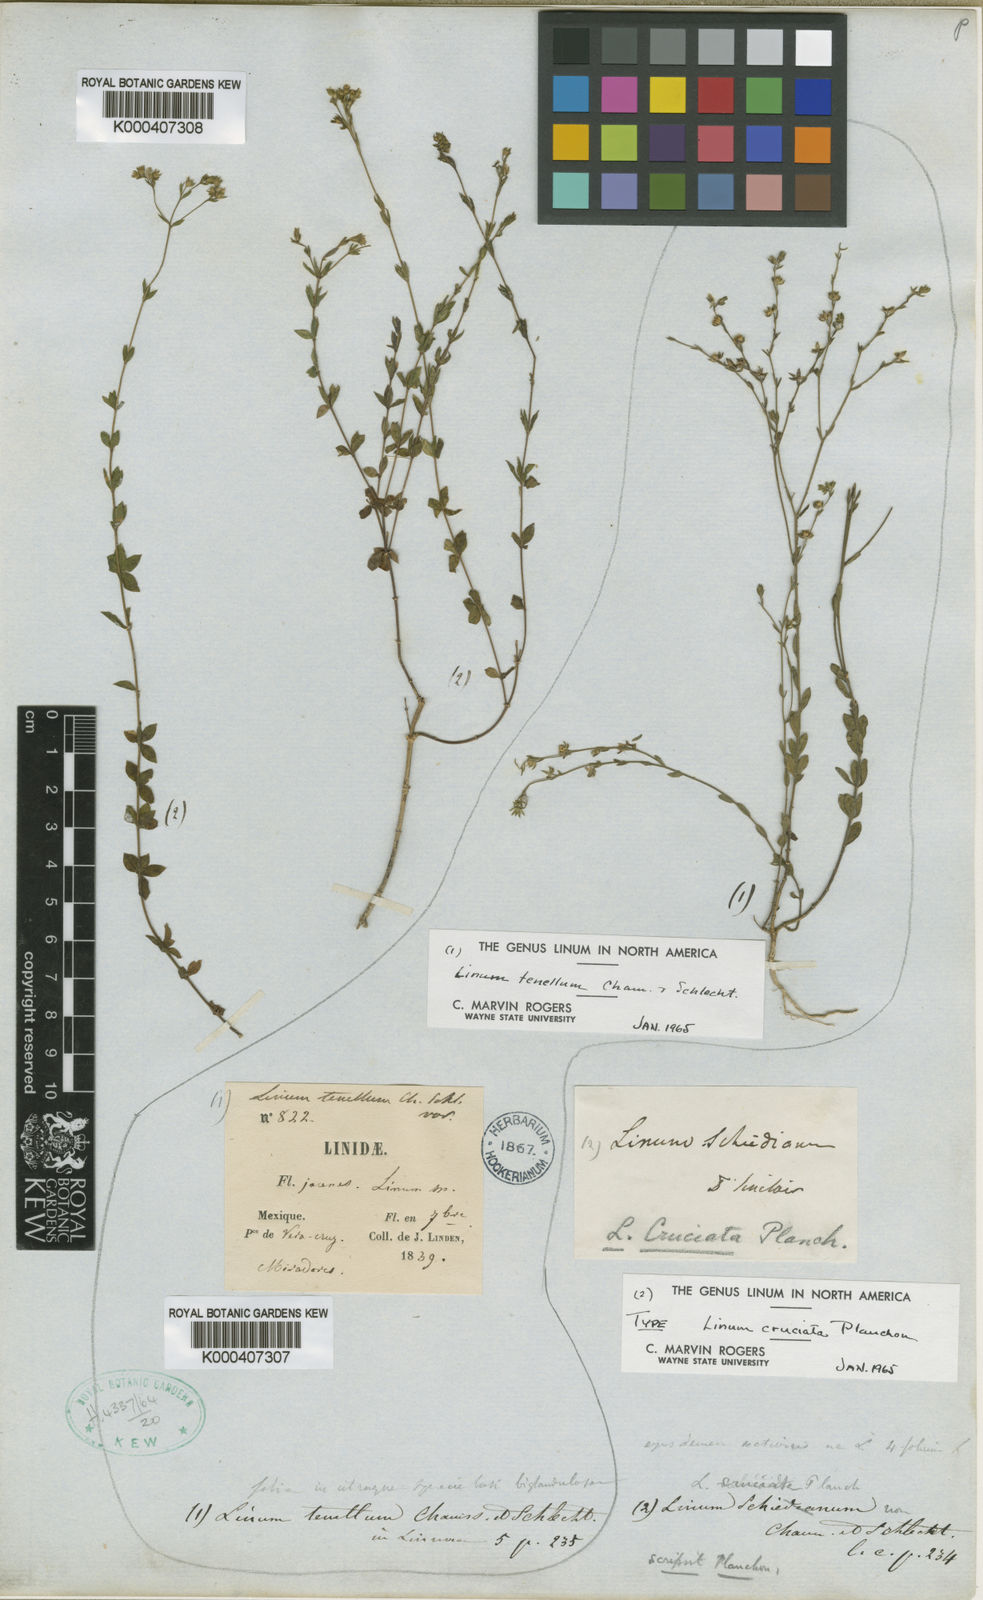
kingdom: Plantae
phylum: Tracheophyta
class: Magnoliopsida
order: Malpighiales
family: Linaceae
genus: Linum
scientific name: Linum cruciatum
